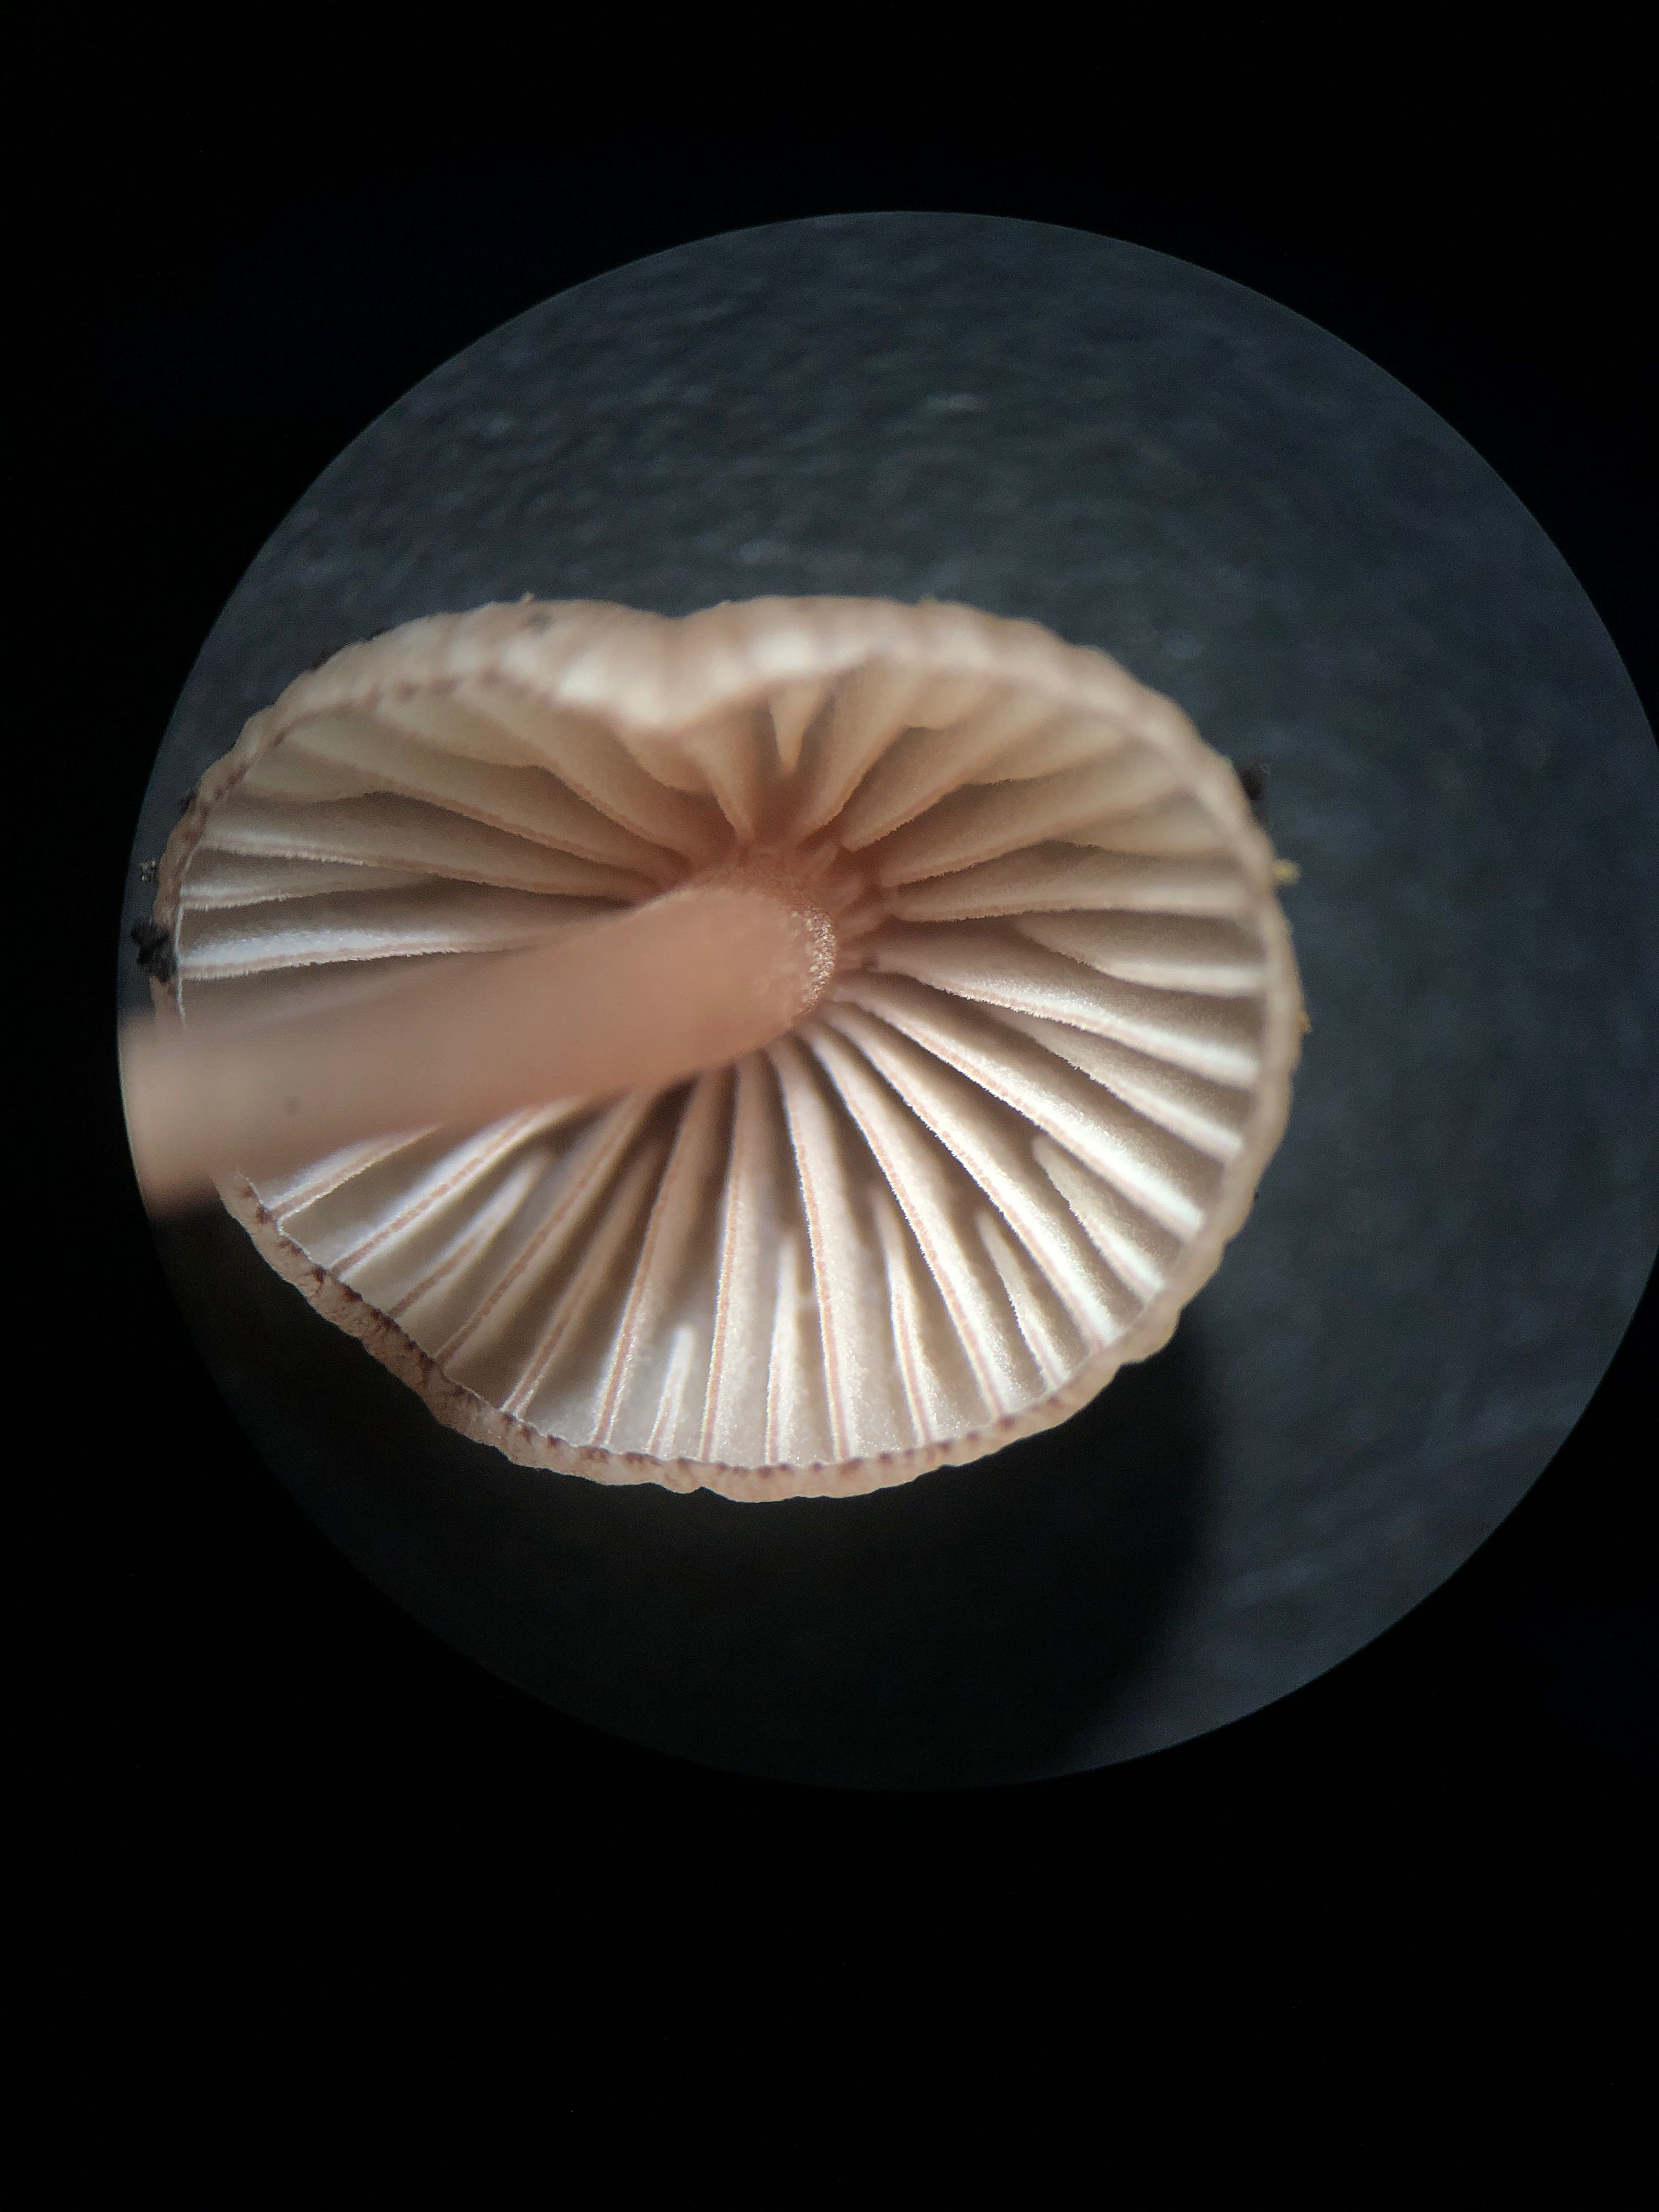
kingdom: Fungi
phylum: Basidiomycota
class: Agaricomycetes
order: Agaricales
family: Mycenaceae
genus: Mycena
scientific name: Mycena sanguinolenta
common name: rødmælket huesvamp
